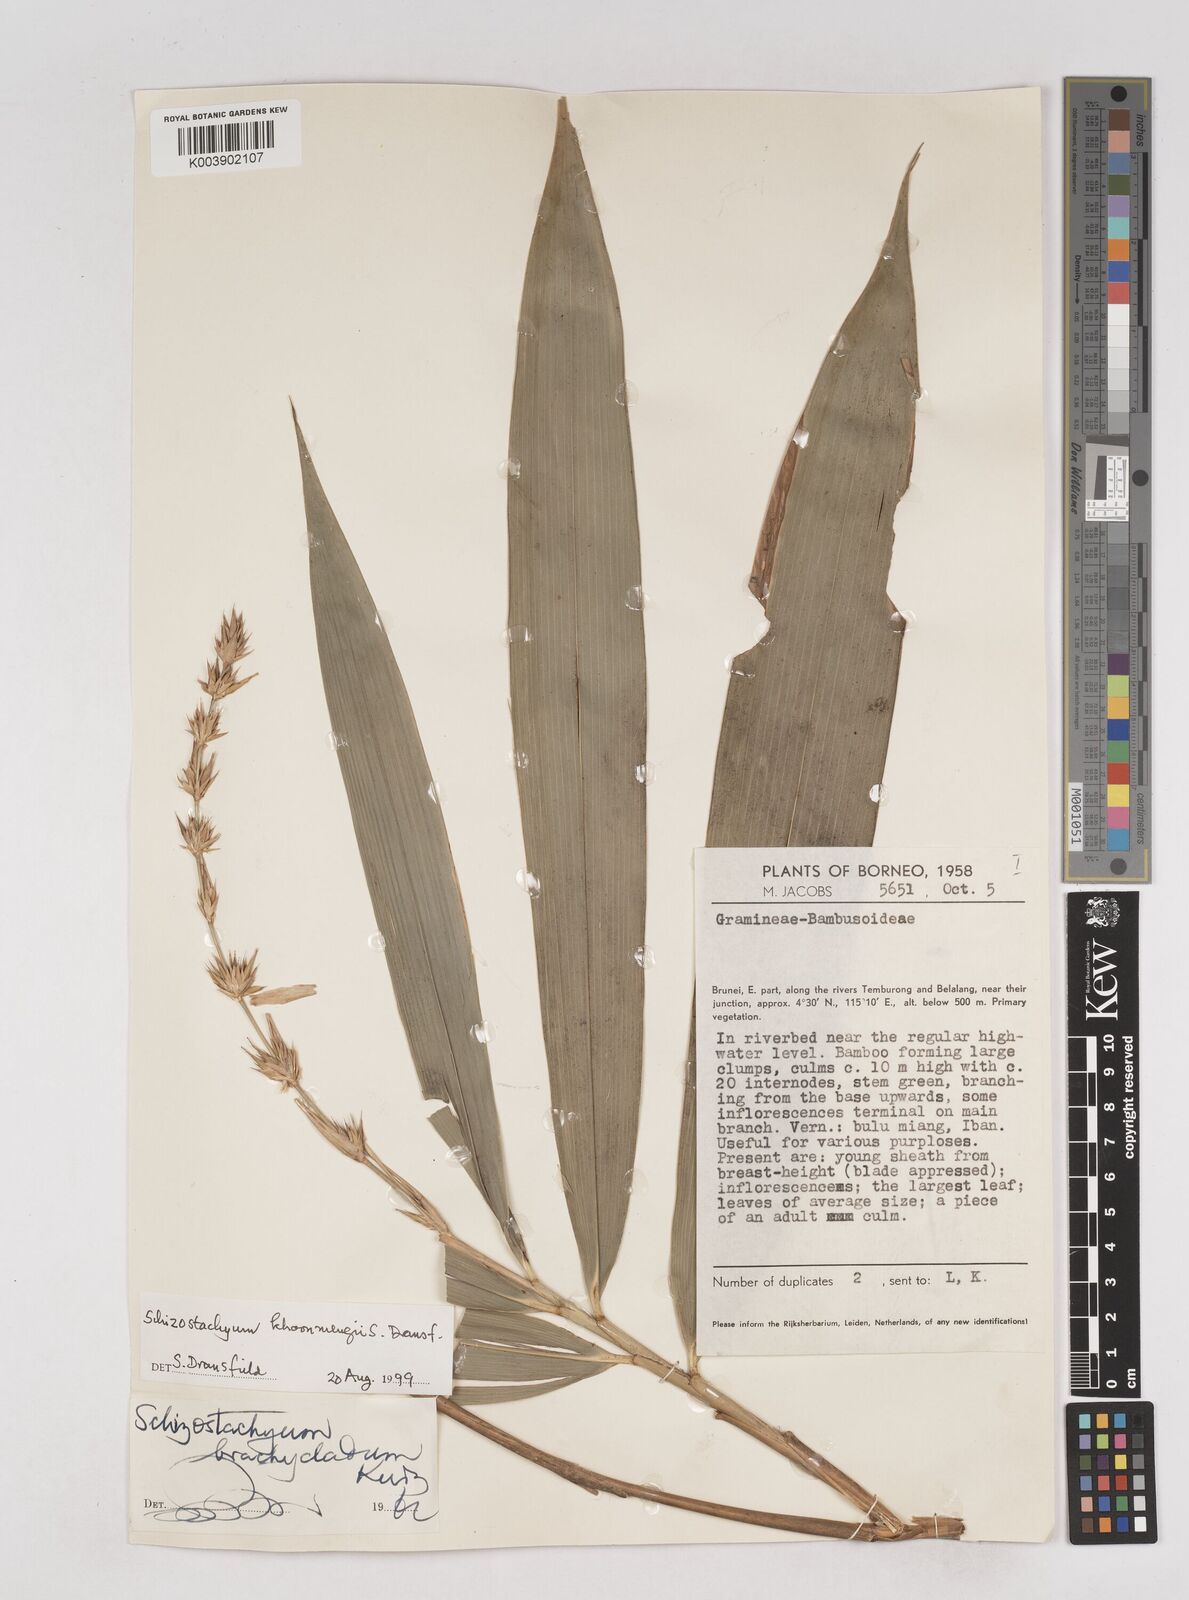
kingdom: Plantae
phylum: Tracheophyta
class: Liliopsida
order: Poales
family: Poaceae
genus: Schizostachyum
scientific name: Schizostachyum khoonmengii
